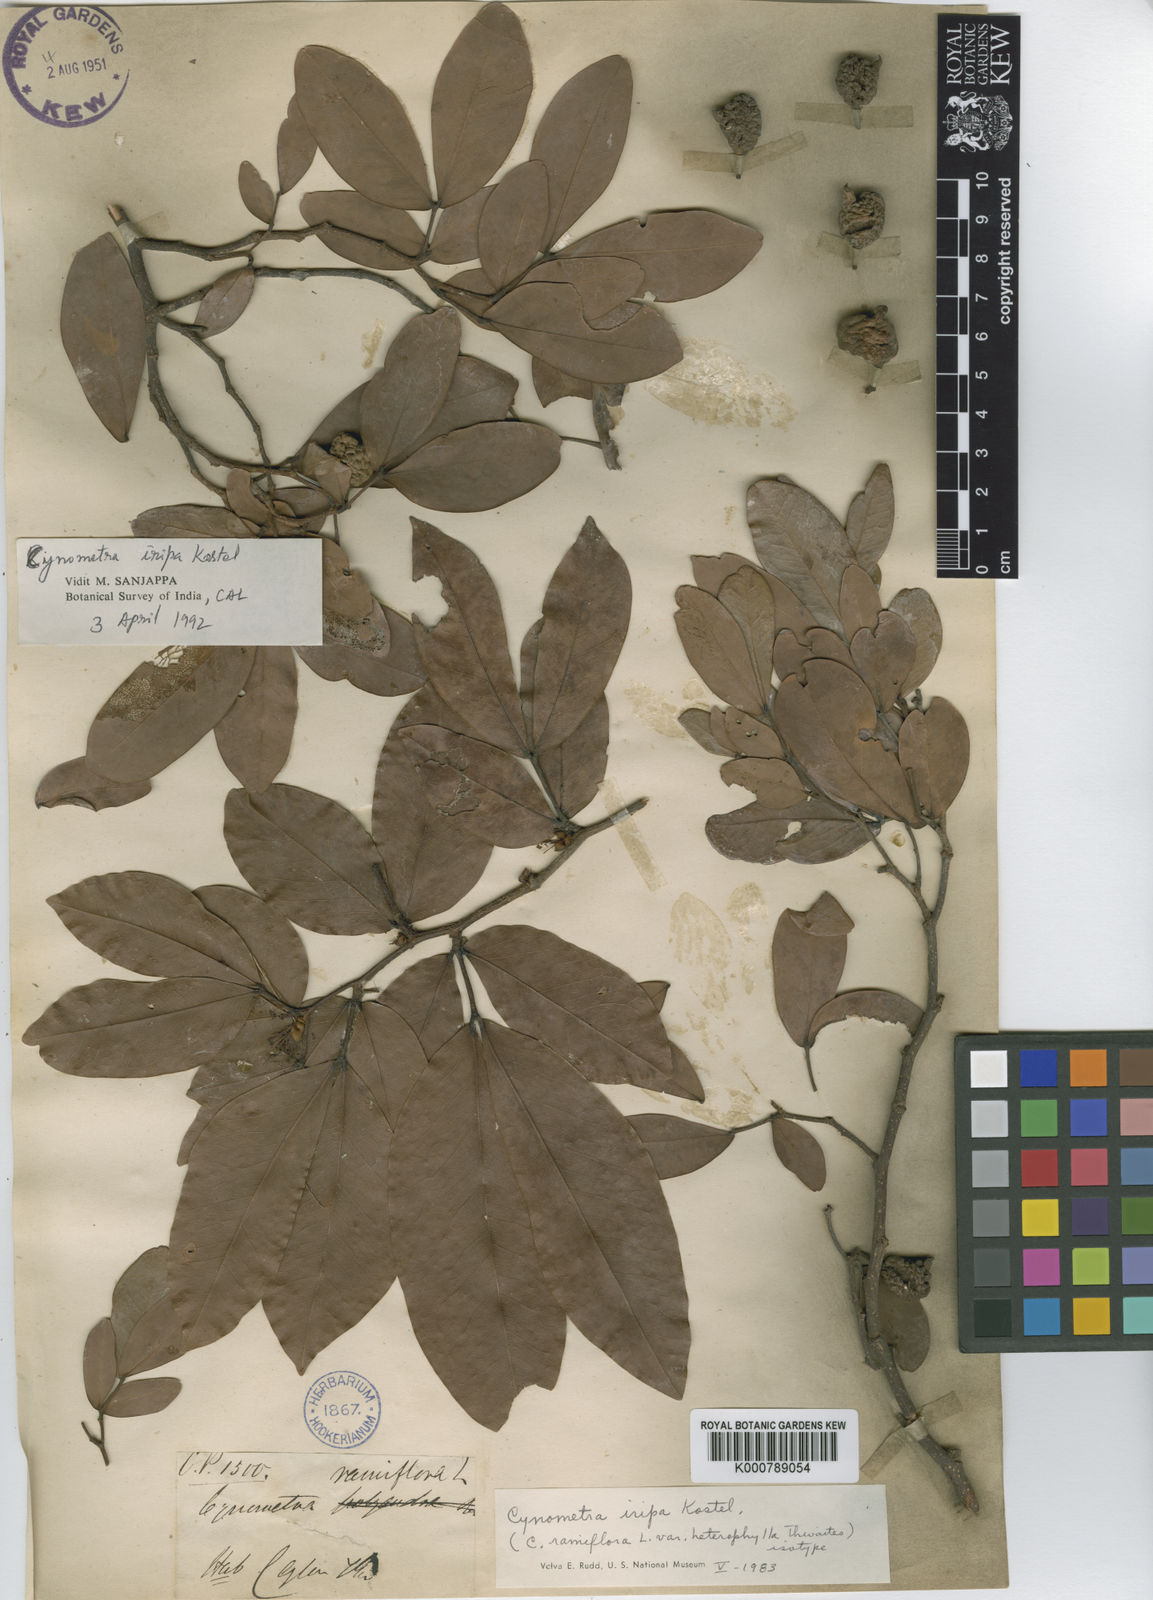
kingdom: Plantae
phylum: Tracheophyta
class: Magnoliopsida
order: Fabales
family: Fabaceae
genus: Cynometra
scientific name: Cynometra iripa
